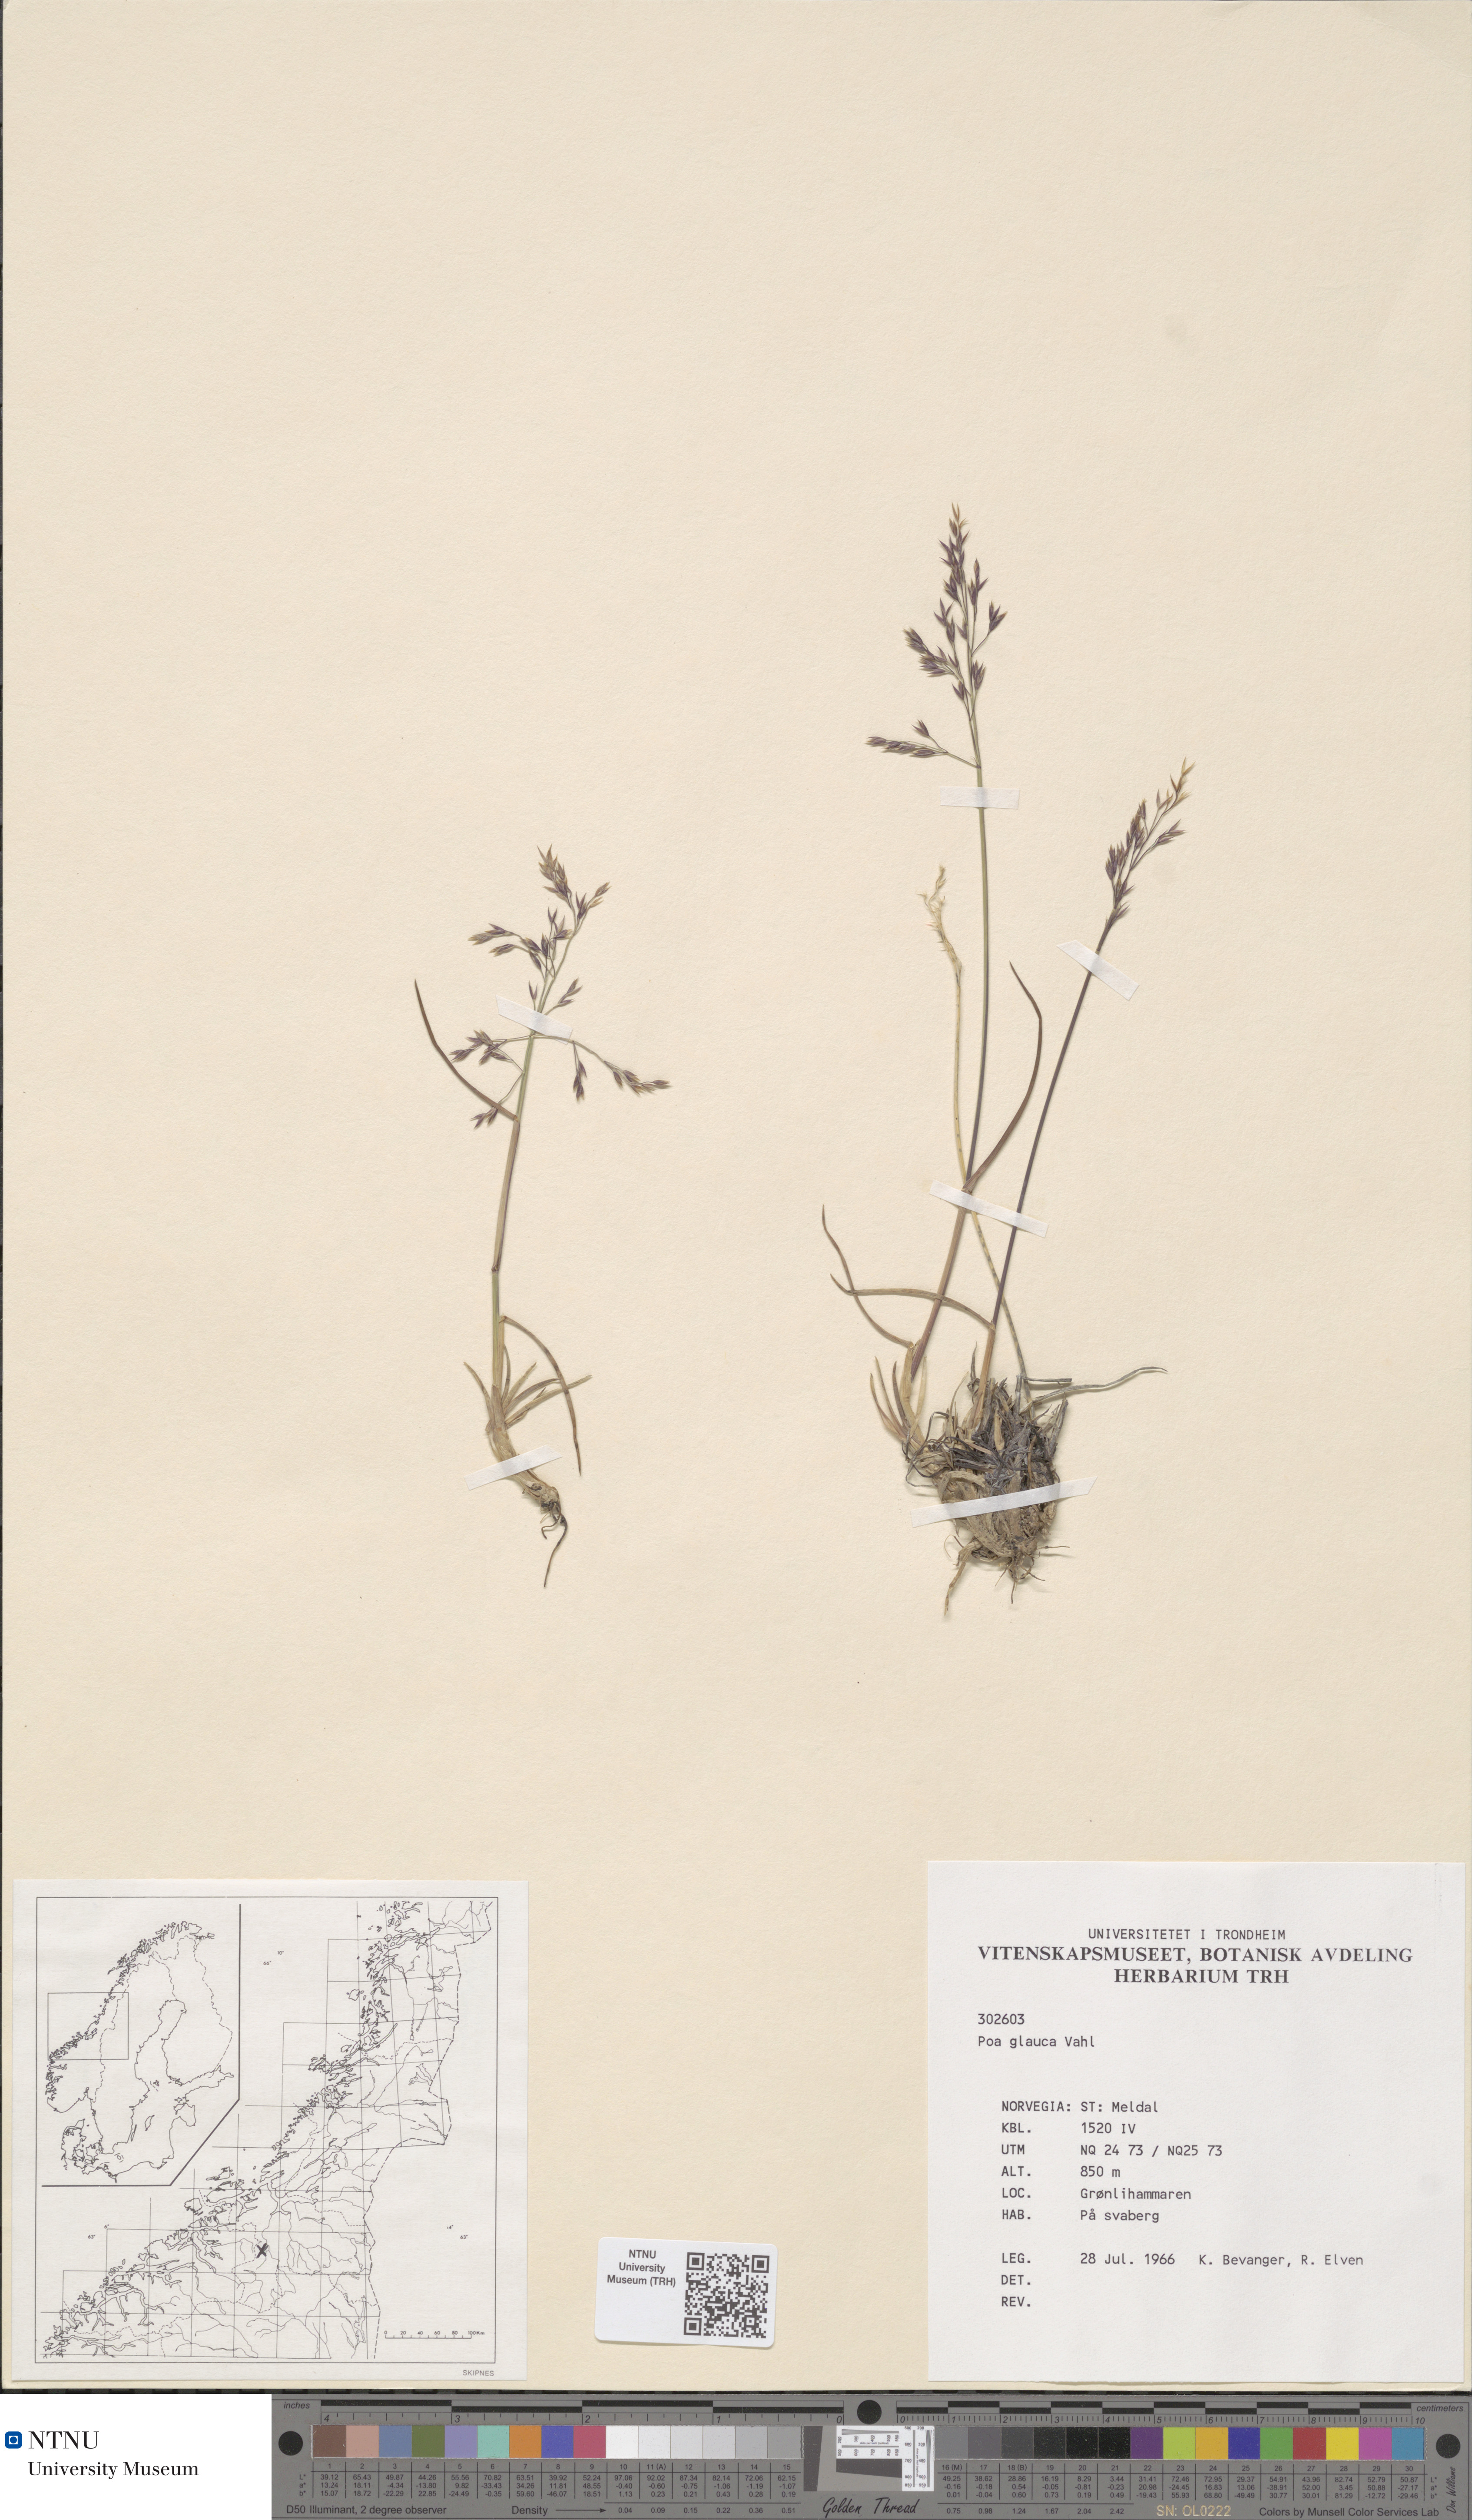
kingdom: Plantae
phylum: Tracheophyta
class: Liliopsida
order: Poales
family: Poaceae
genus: Poa
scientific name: Poa glauca
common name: Glaucous bluegrass
